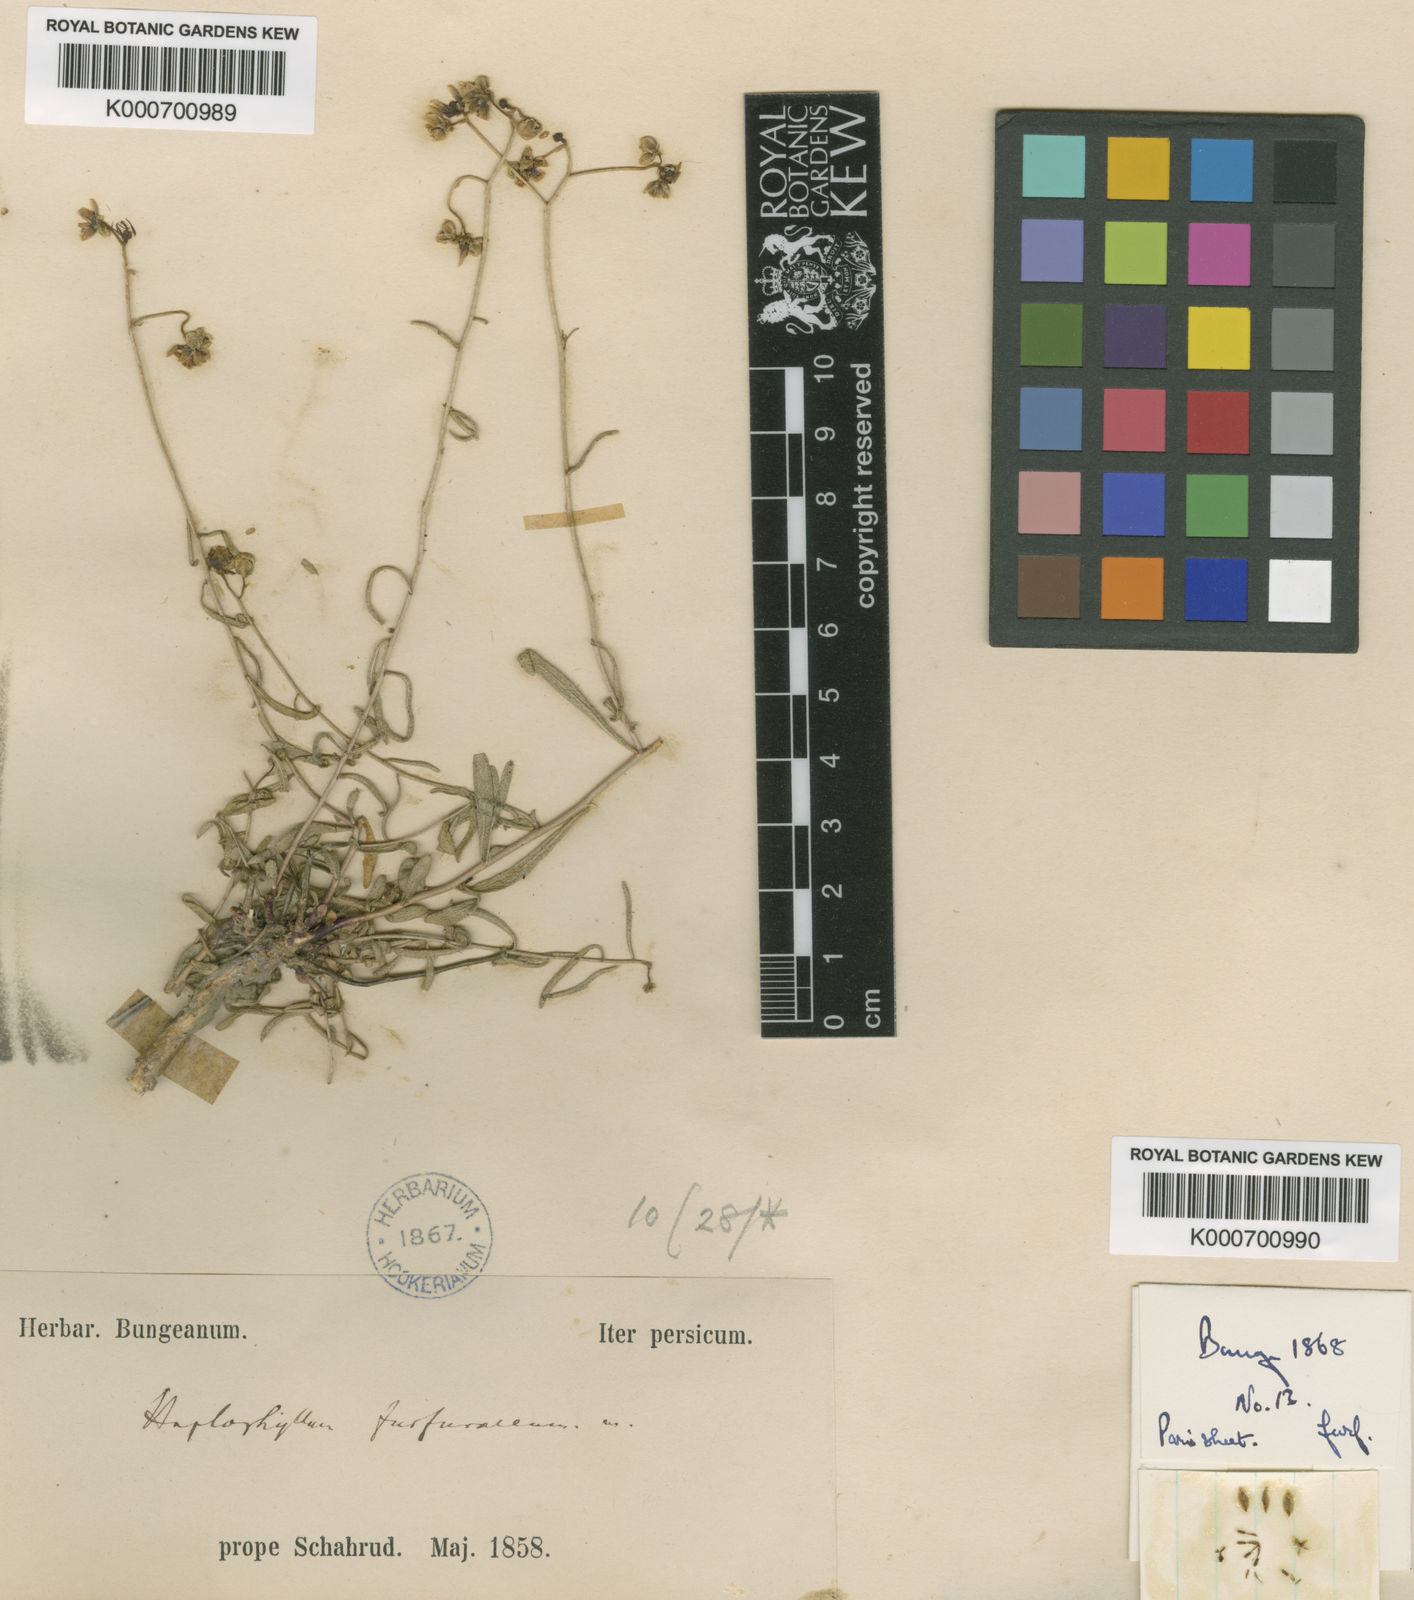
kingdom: Plantae
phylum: Tracheophyta
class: Magnoliopsida
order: Sapindales
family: Rutaceae
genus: Haplophyllum
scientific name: Haplophyllum furfuraceum
